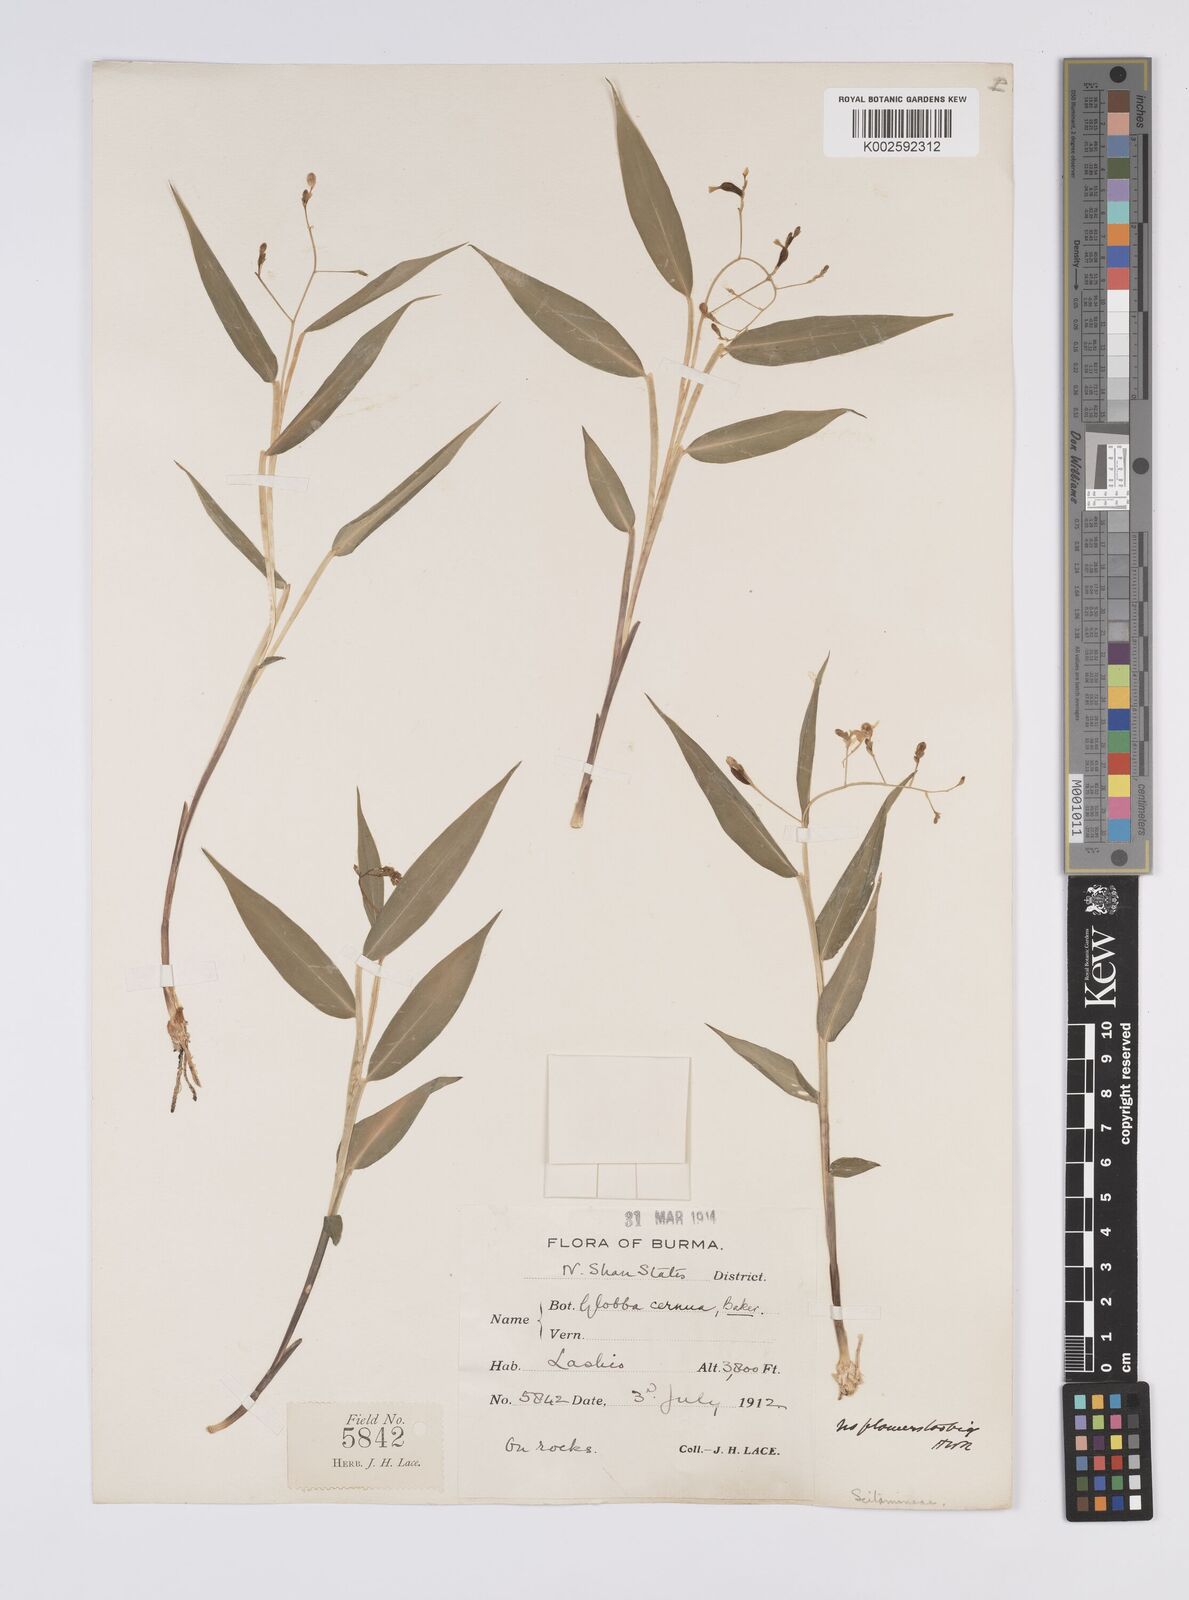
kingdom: Plantae
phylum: Tracheophyta
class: Liliopsida
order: Zingiberales
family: Zingiberaceae
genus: Globba
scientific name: Globba cernua
